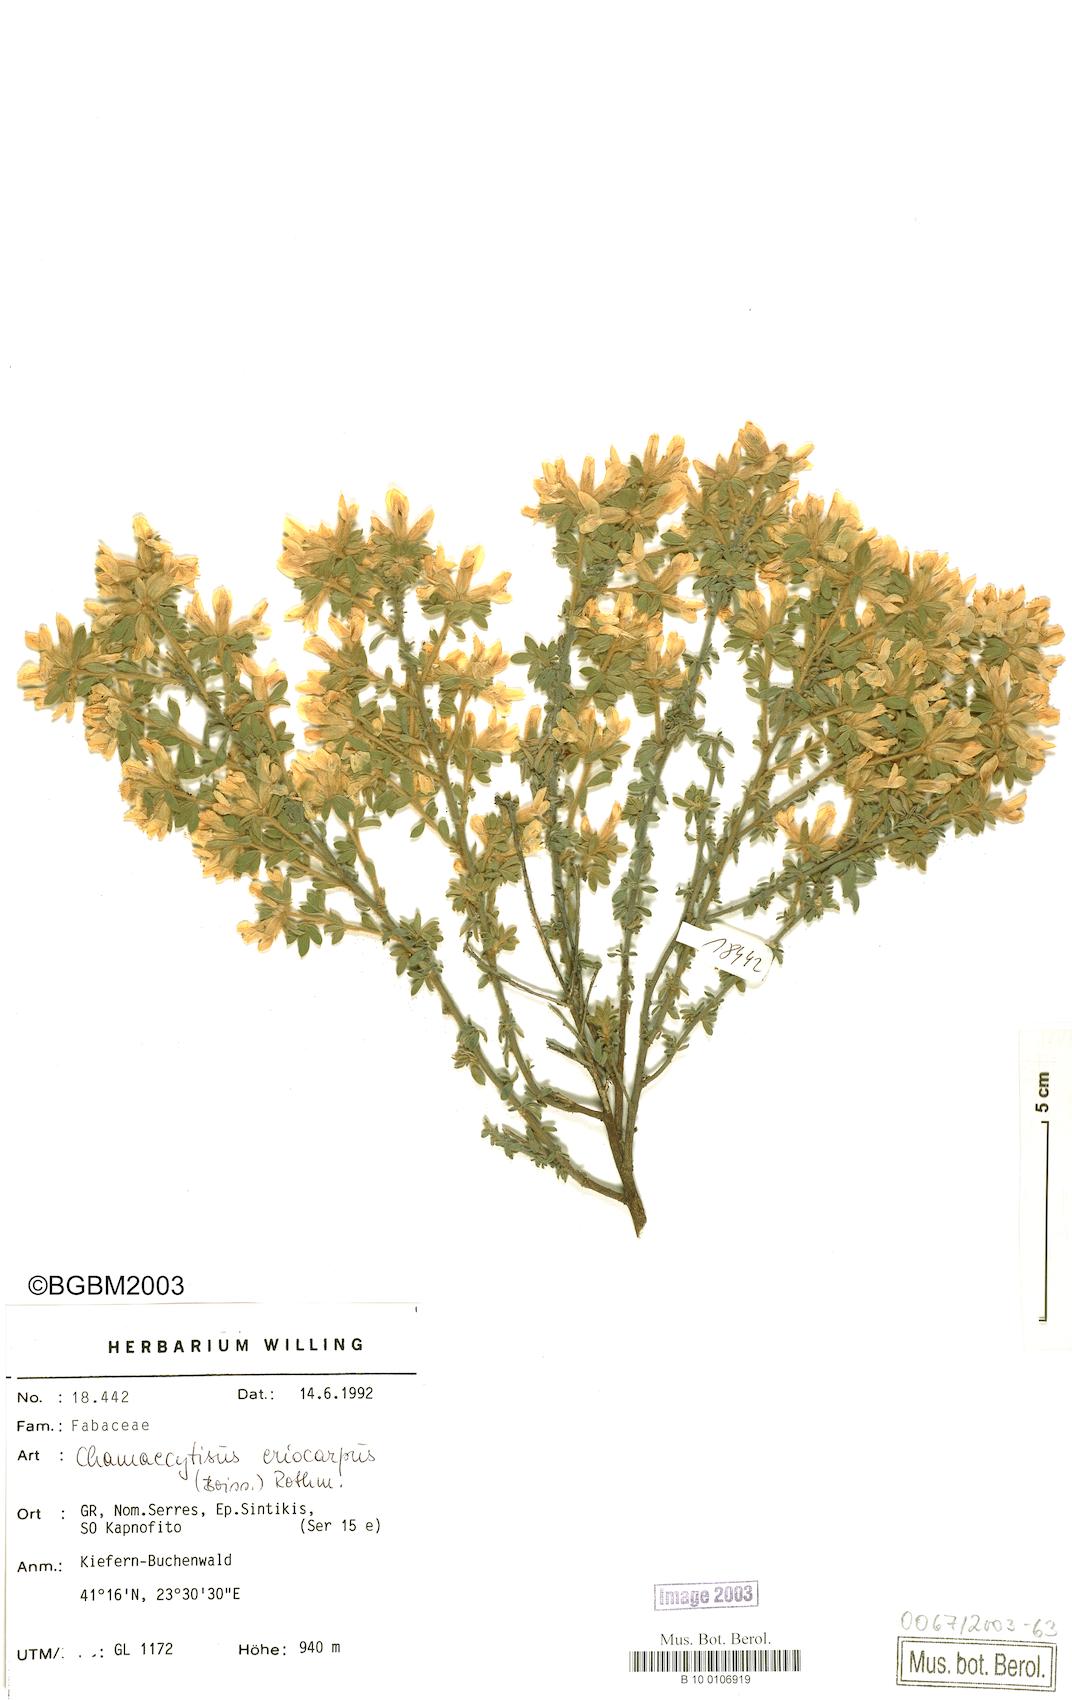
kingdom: Plantae
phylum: Tracheophyta
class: Magnoliopsida
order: Fabales
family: Fabaceae
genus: Chamaecytisus
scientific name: Chamaecytisus eriocarpus
